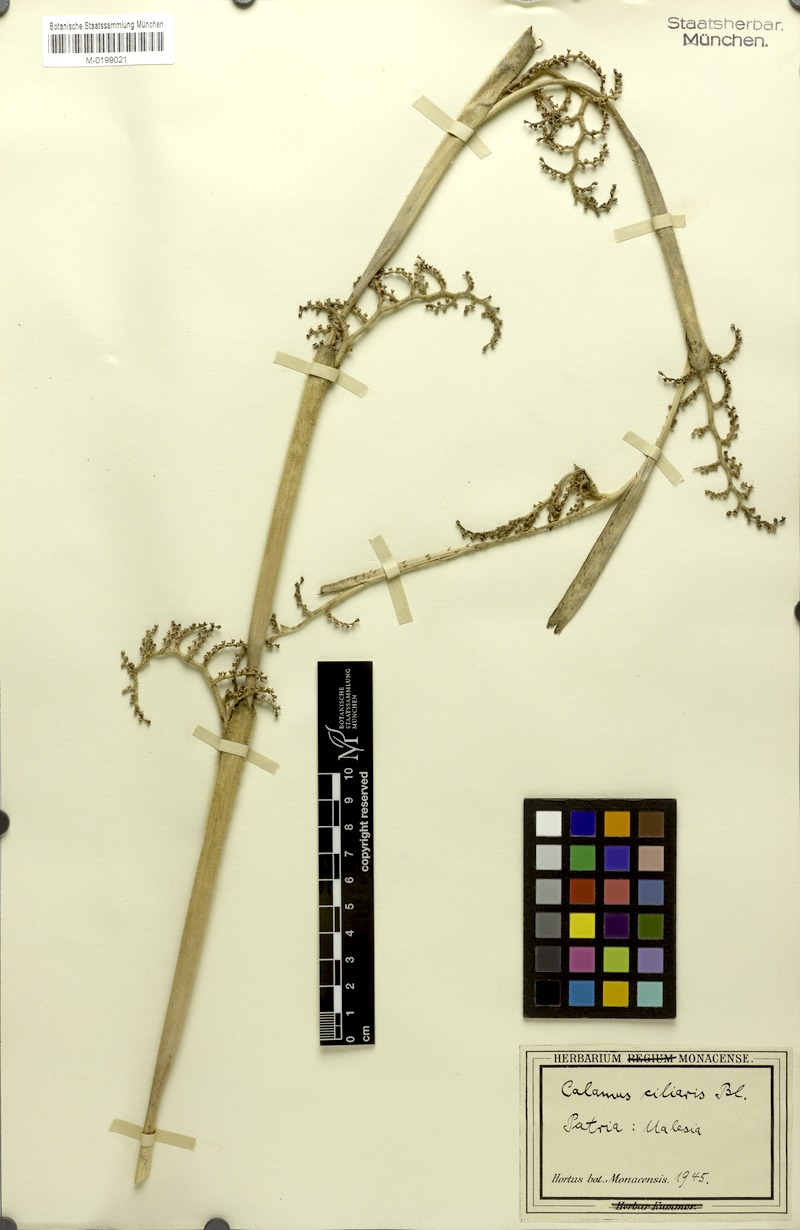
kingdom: Plantae
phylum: Tracheophyta
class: Liliopsida
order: Arecales
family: Arecaceae
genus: Calamus
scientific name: Calamus ciliaris
